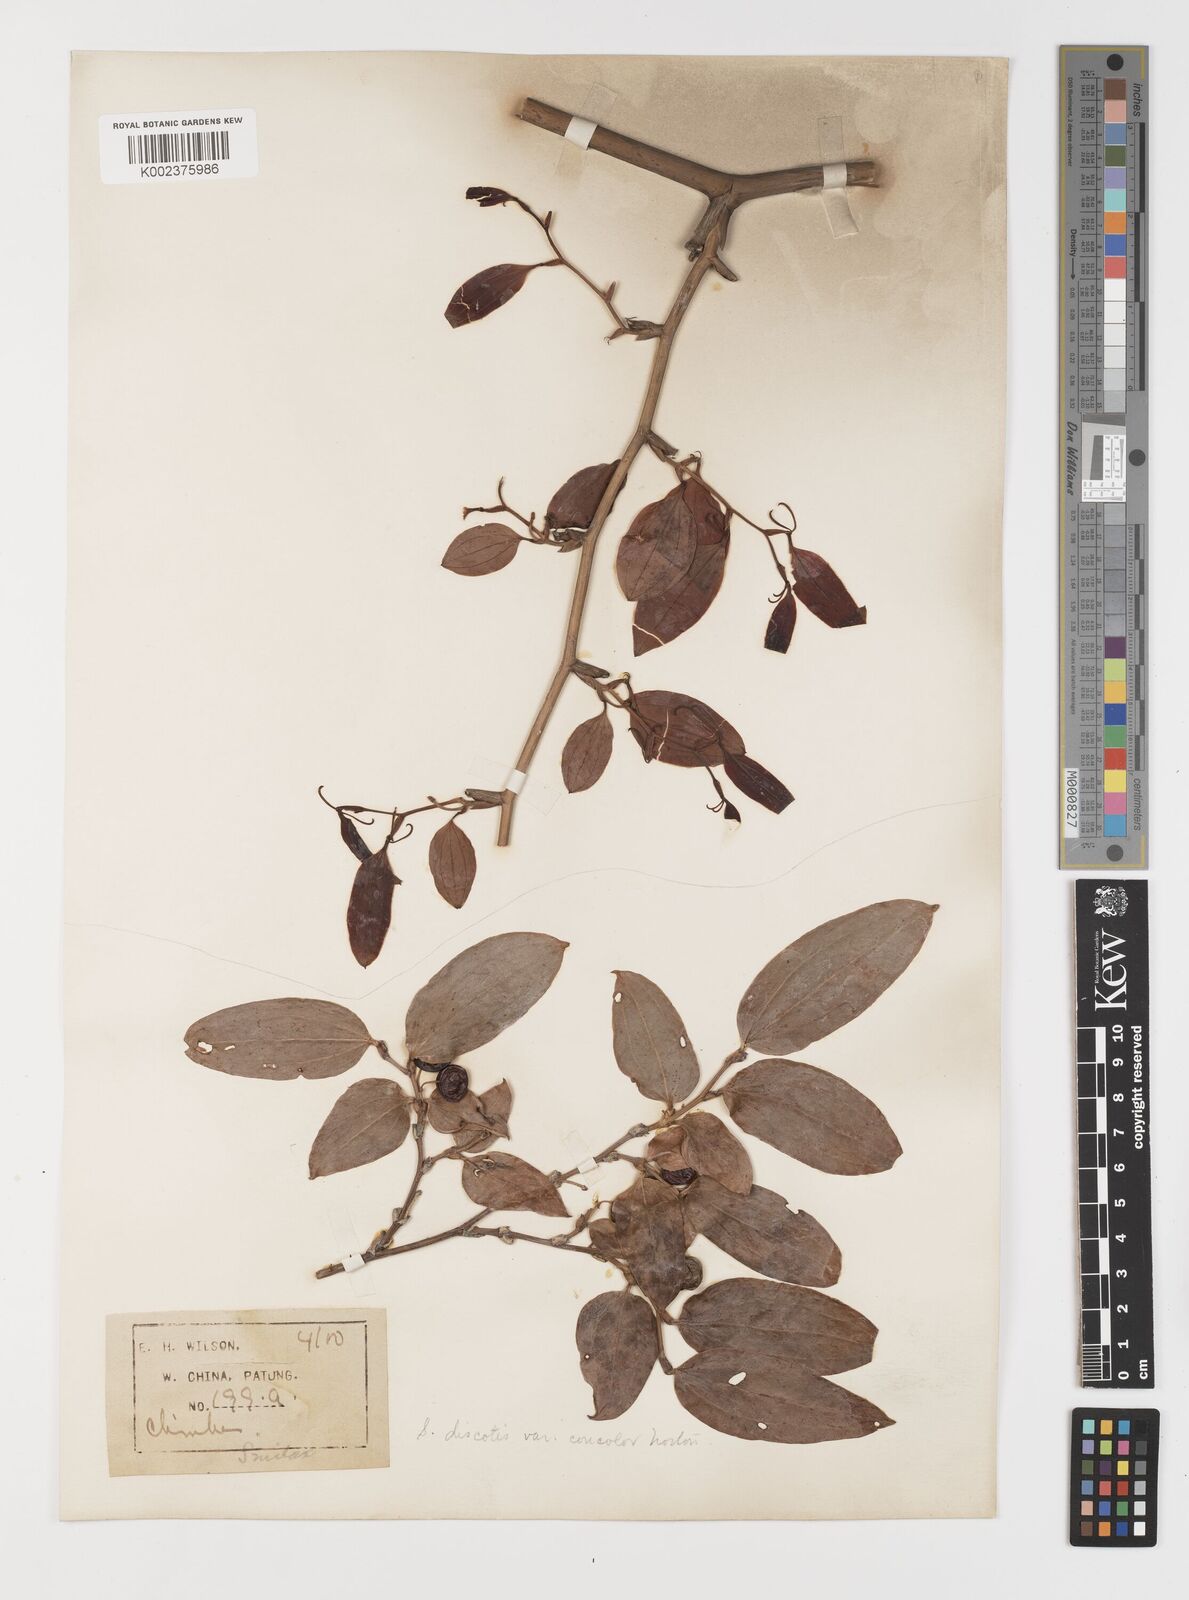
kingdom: Plantae
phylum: Tracheophyta
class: Liliopsida
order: Liliales
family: Smilacaceae
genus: Smilax
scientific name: Smilax discotis
